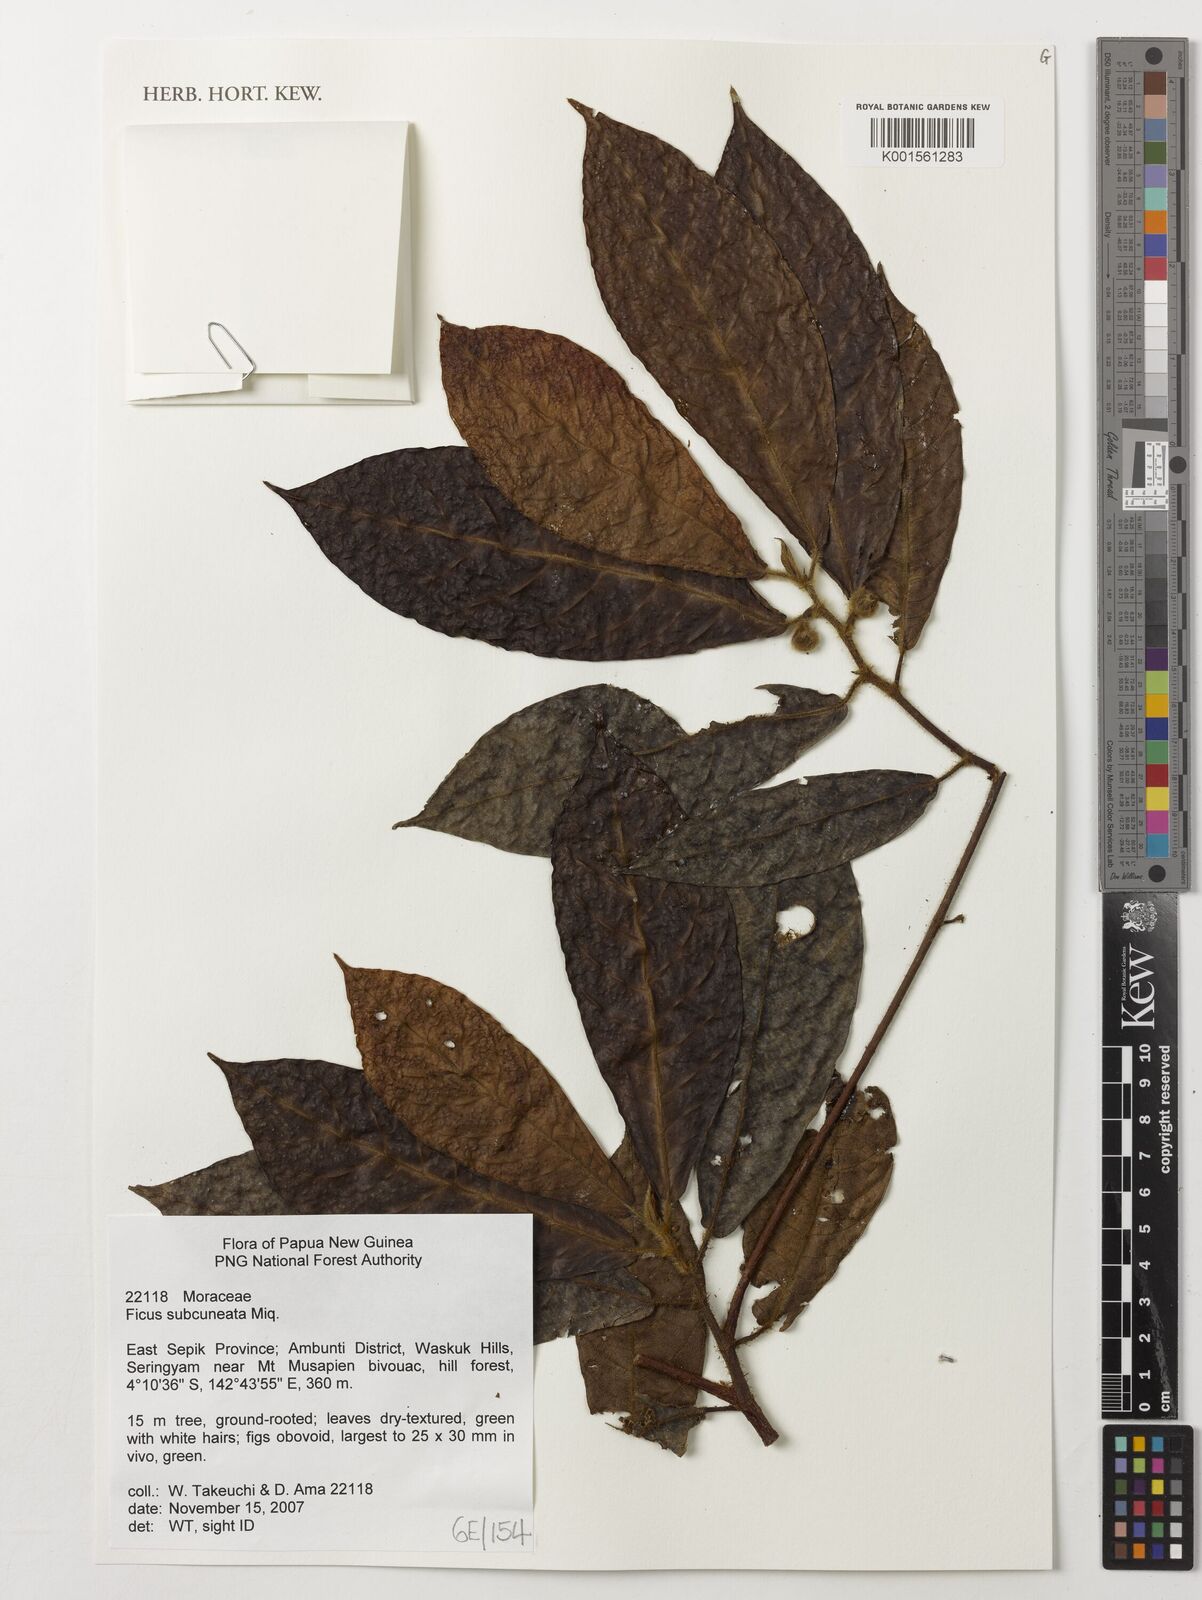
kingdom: Plantae
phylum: Tracheophyta
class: Magnoliopsida
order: Rosales
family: Moraceae
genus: Ficus
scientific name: Ficus subcuneata
